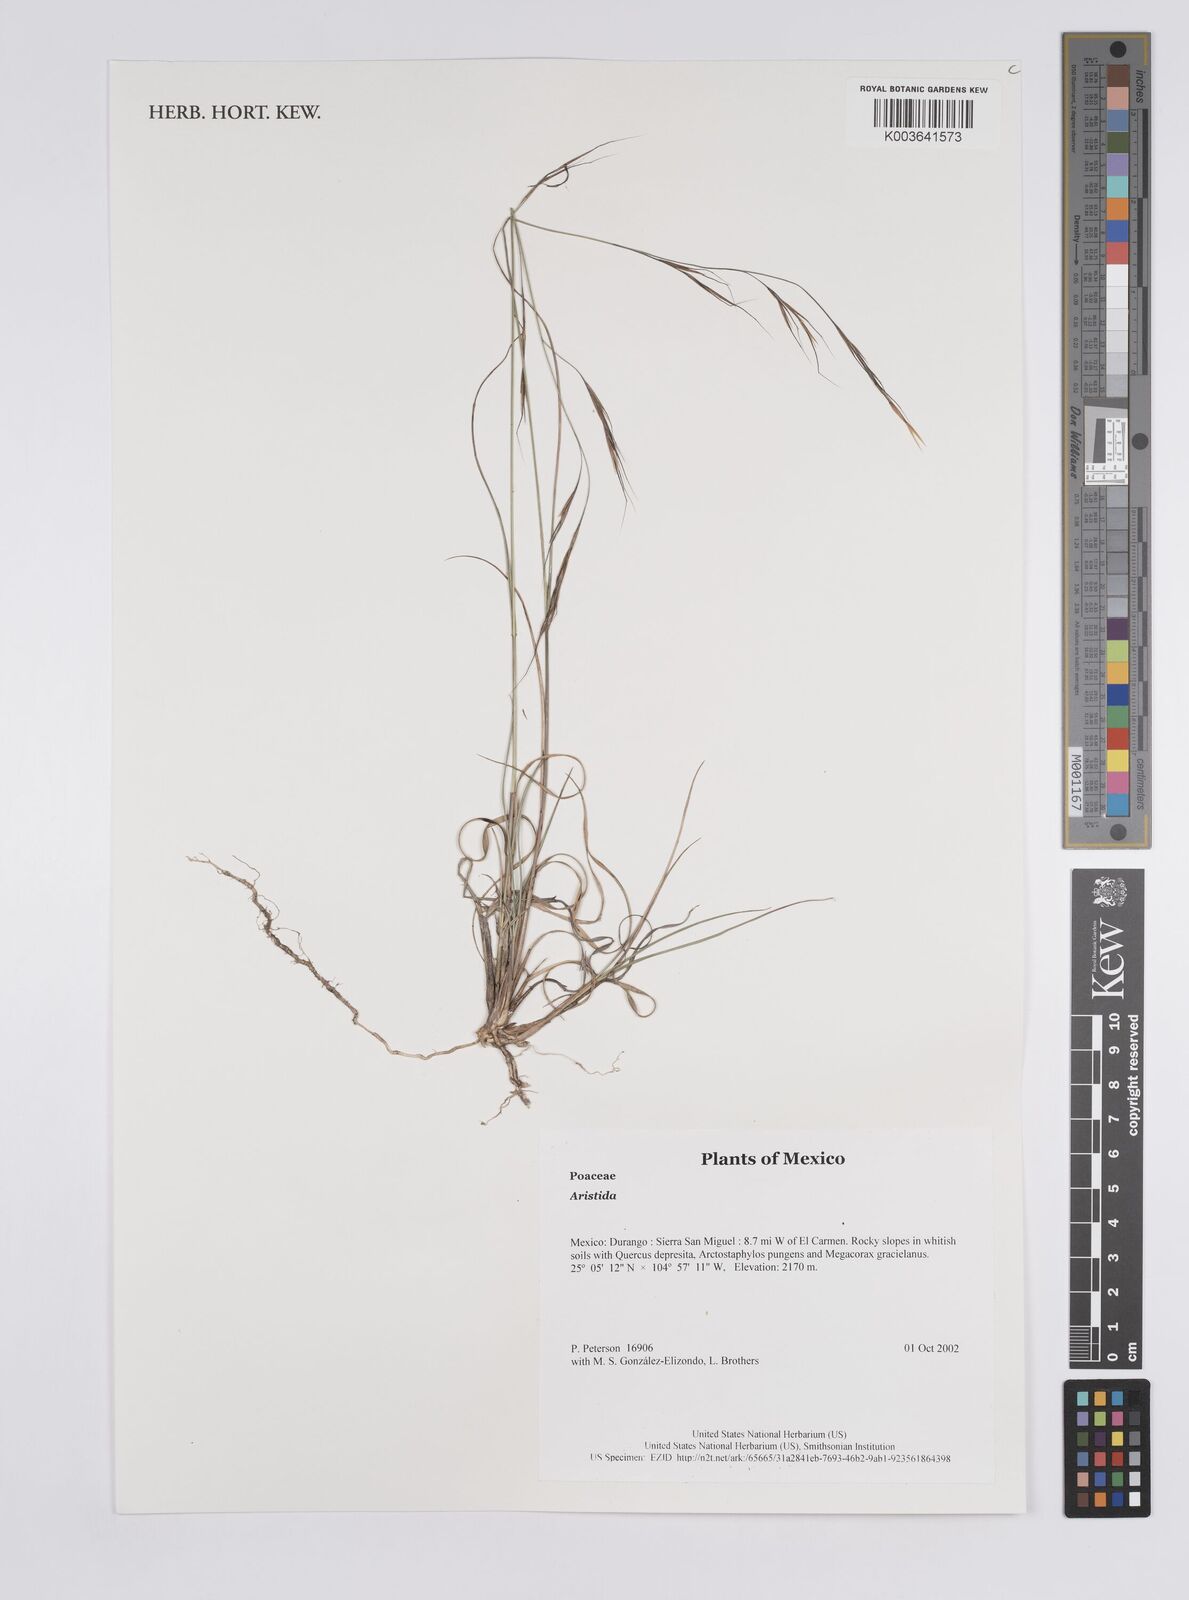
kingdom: Plantae
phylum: Tracheophyta
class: Liliopsida
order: Poales
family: Poaceae
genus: Aristida
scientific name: Aristida
